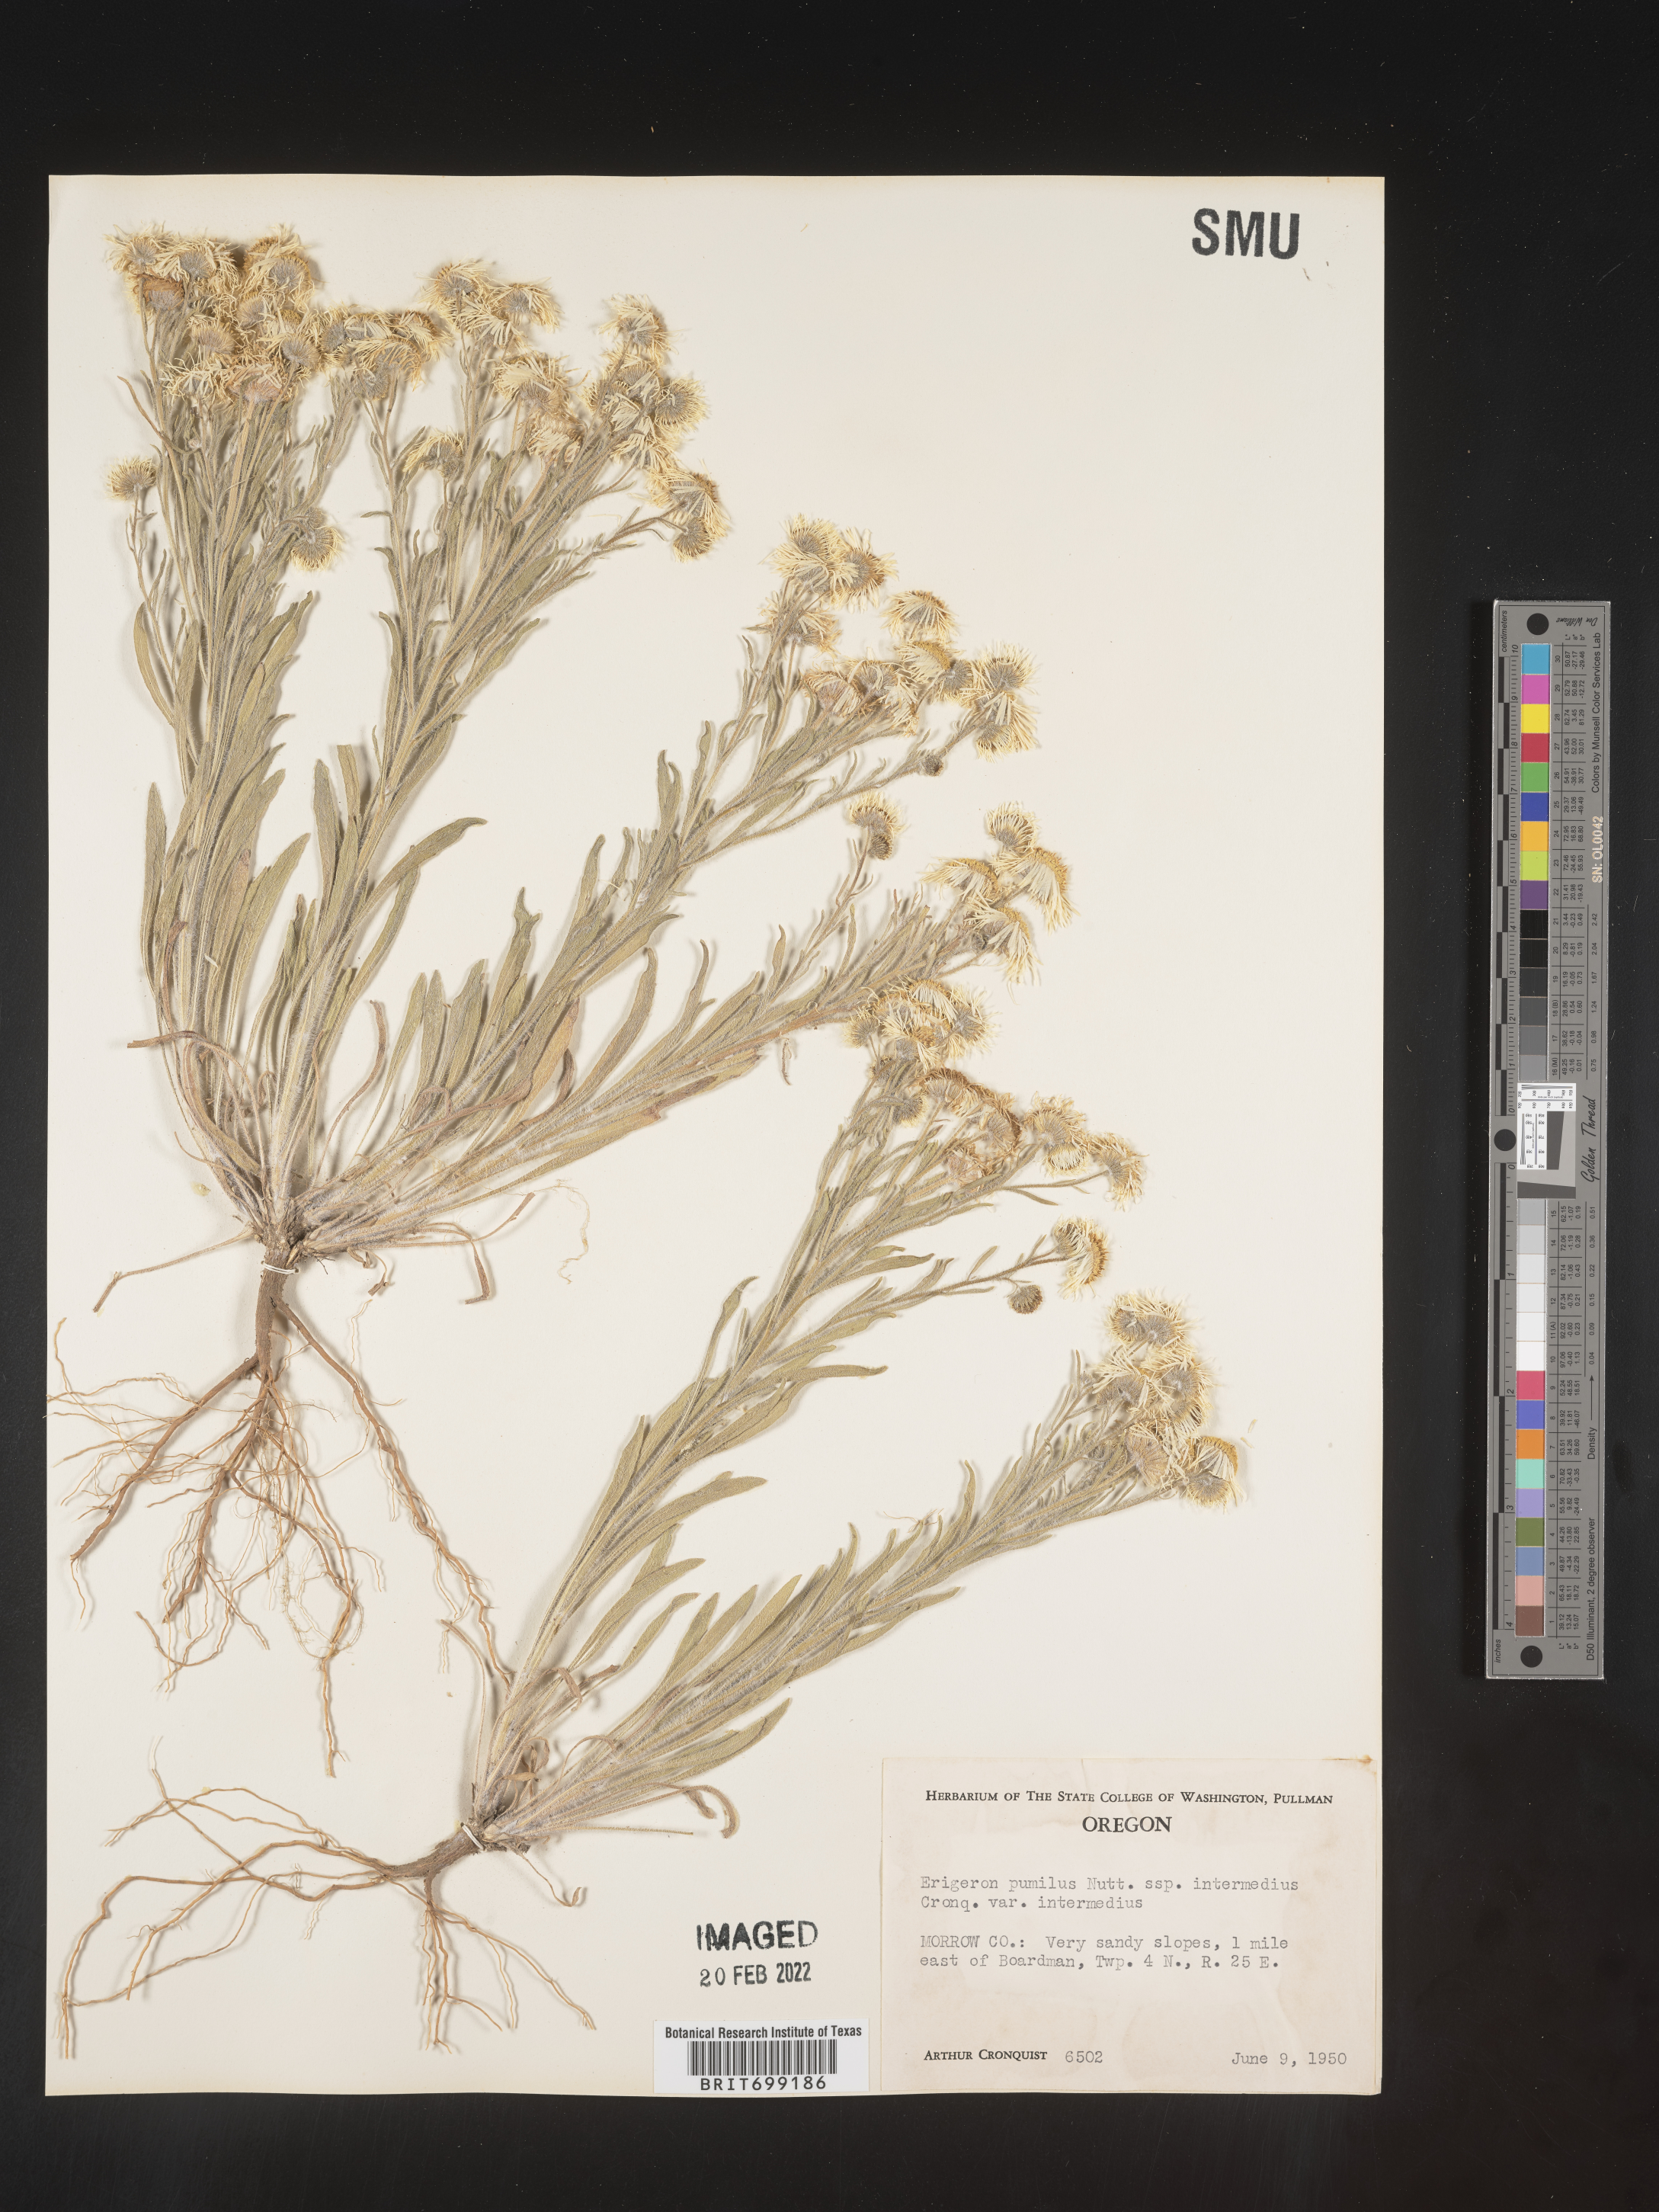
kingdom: Plantae
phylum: Tracheophyta
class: Magnoliopsida
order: Asterales
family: Asteraceae
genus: Erigeron
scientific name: Erigeron pumilus
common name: Shaggy fleabane
